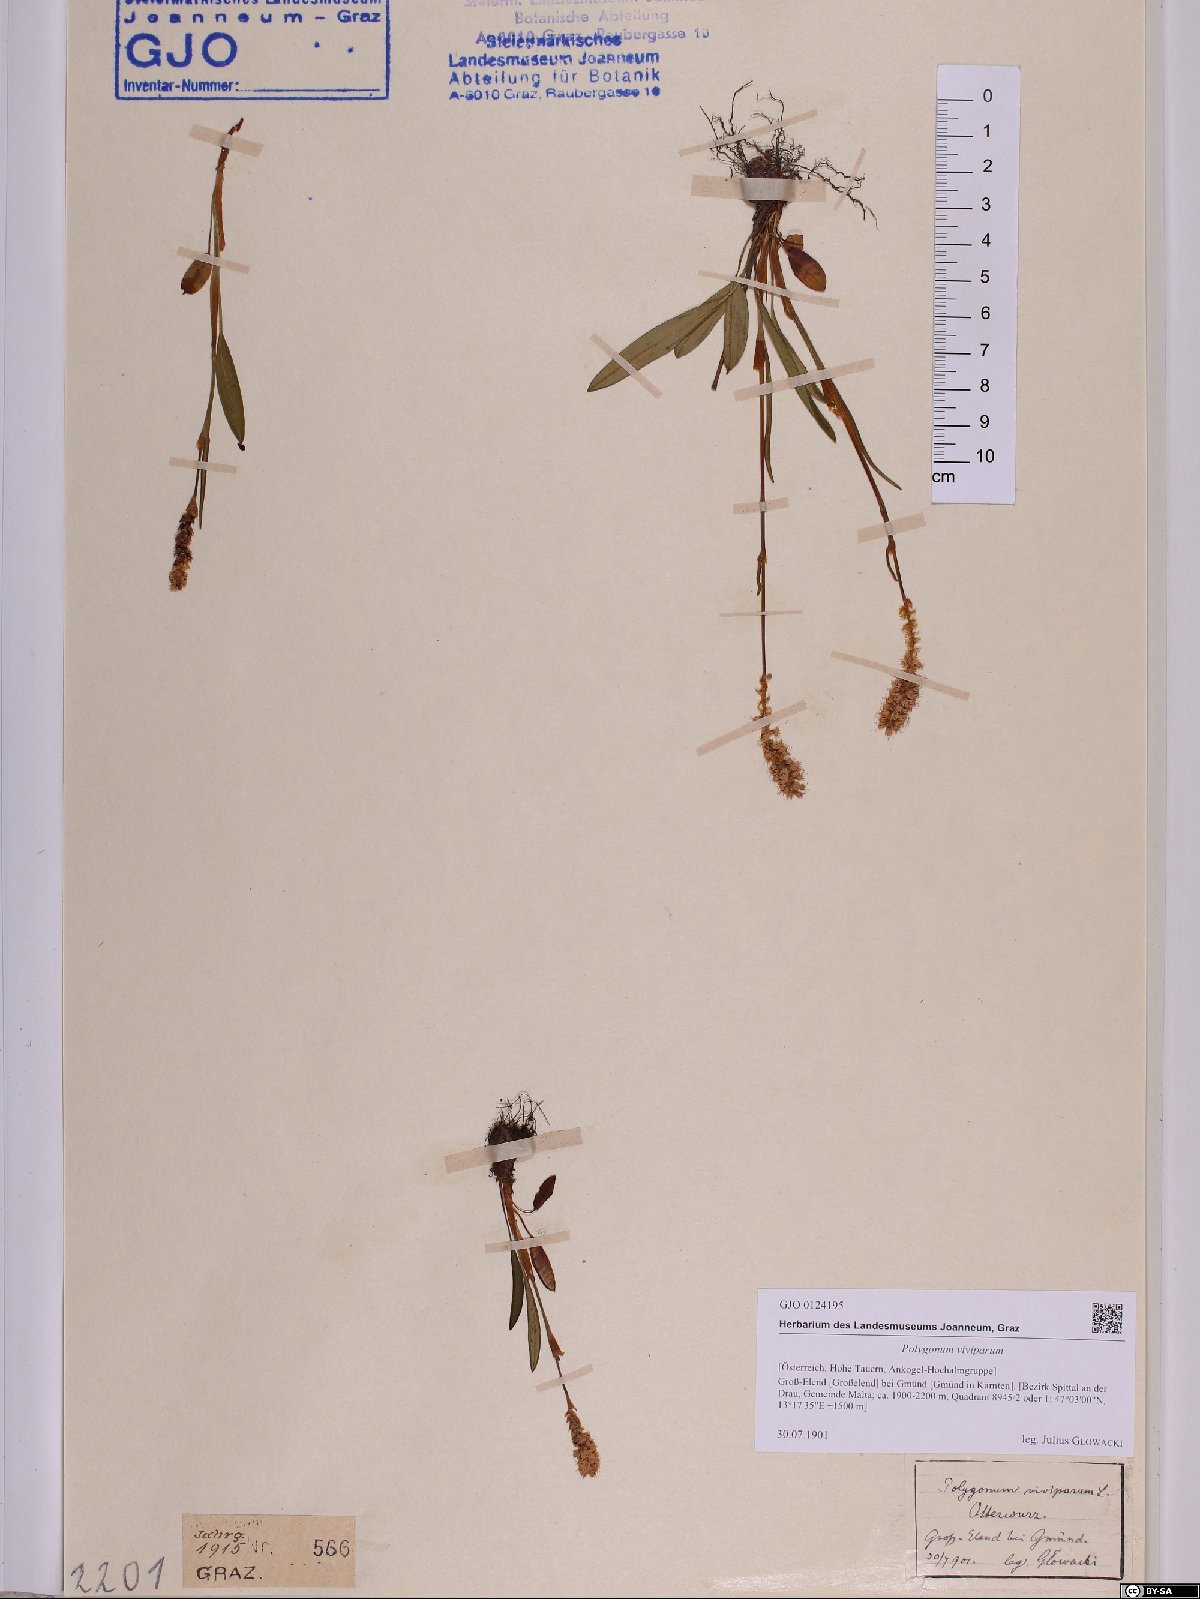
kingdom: Plantae
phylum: Tracheophyta
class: Magnoliopsida
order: Caryophyllales
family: Polygonaceae
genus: Bistorta
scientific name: Bistorta vivipara
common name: Alpine bistort
